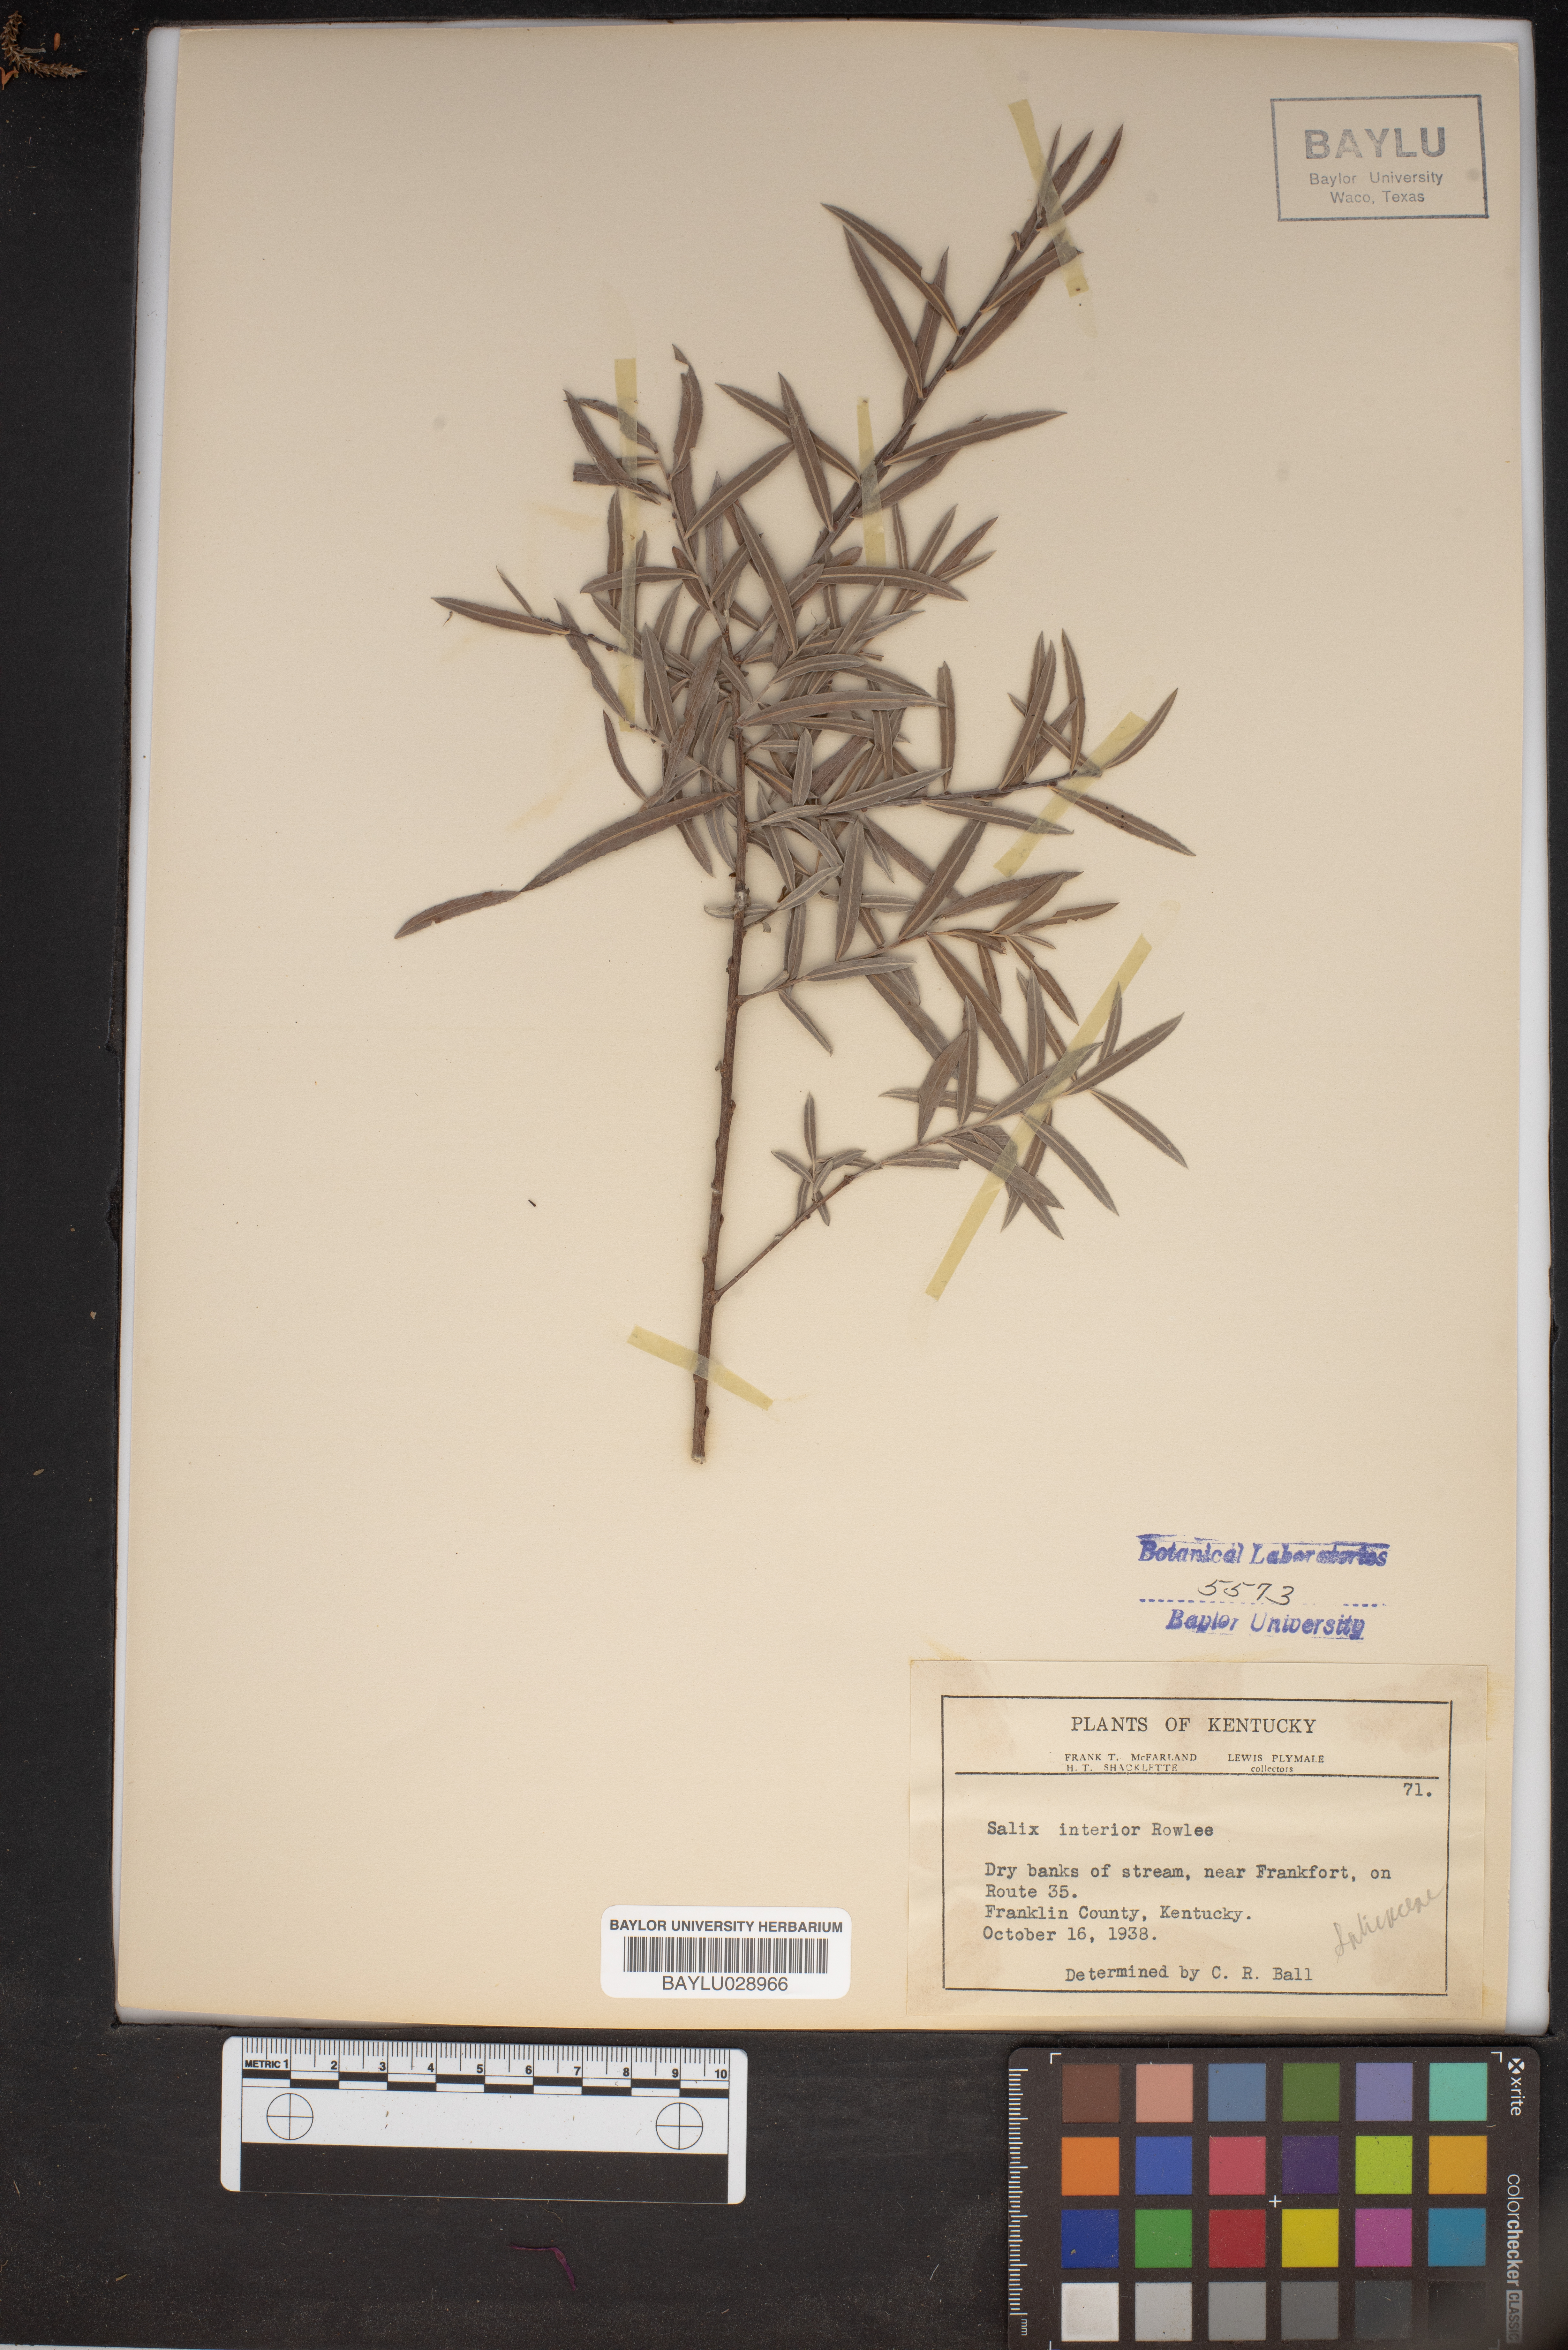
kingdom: Plantae
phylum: Tracheophyta
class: Magnoliopsida
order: Malpighiales
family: Salicaceae
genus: Salix
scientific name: Salix interior
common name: Sandbar willow
